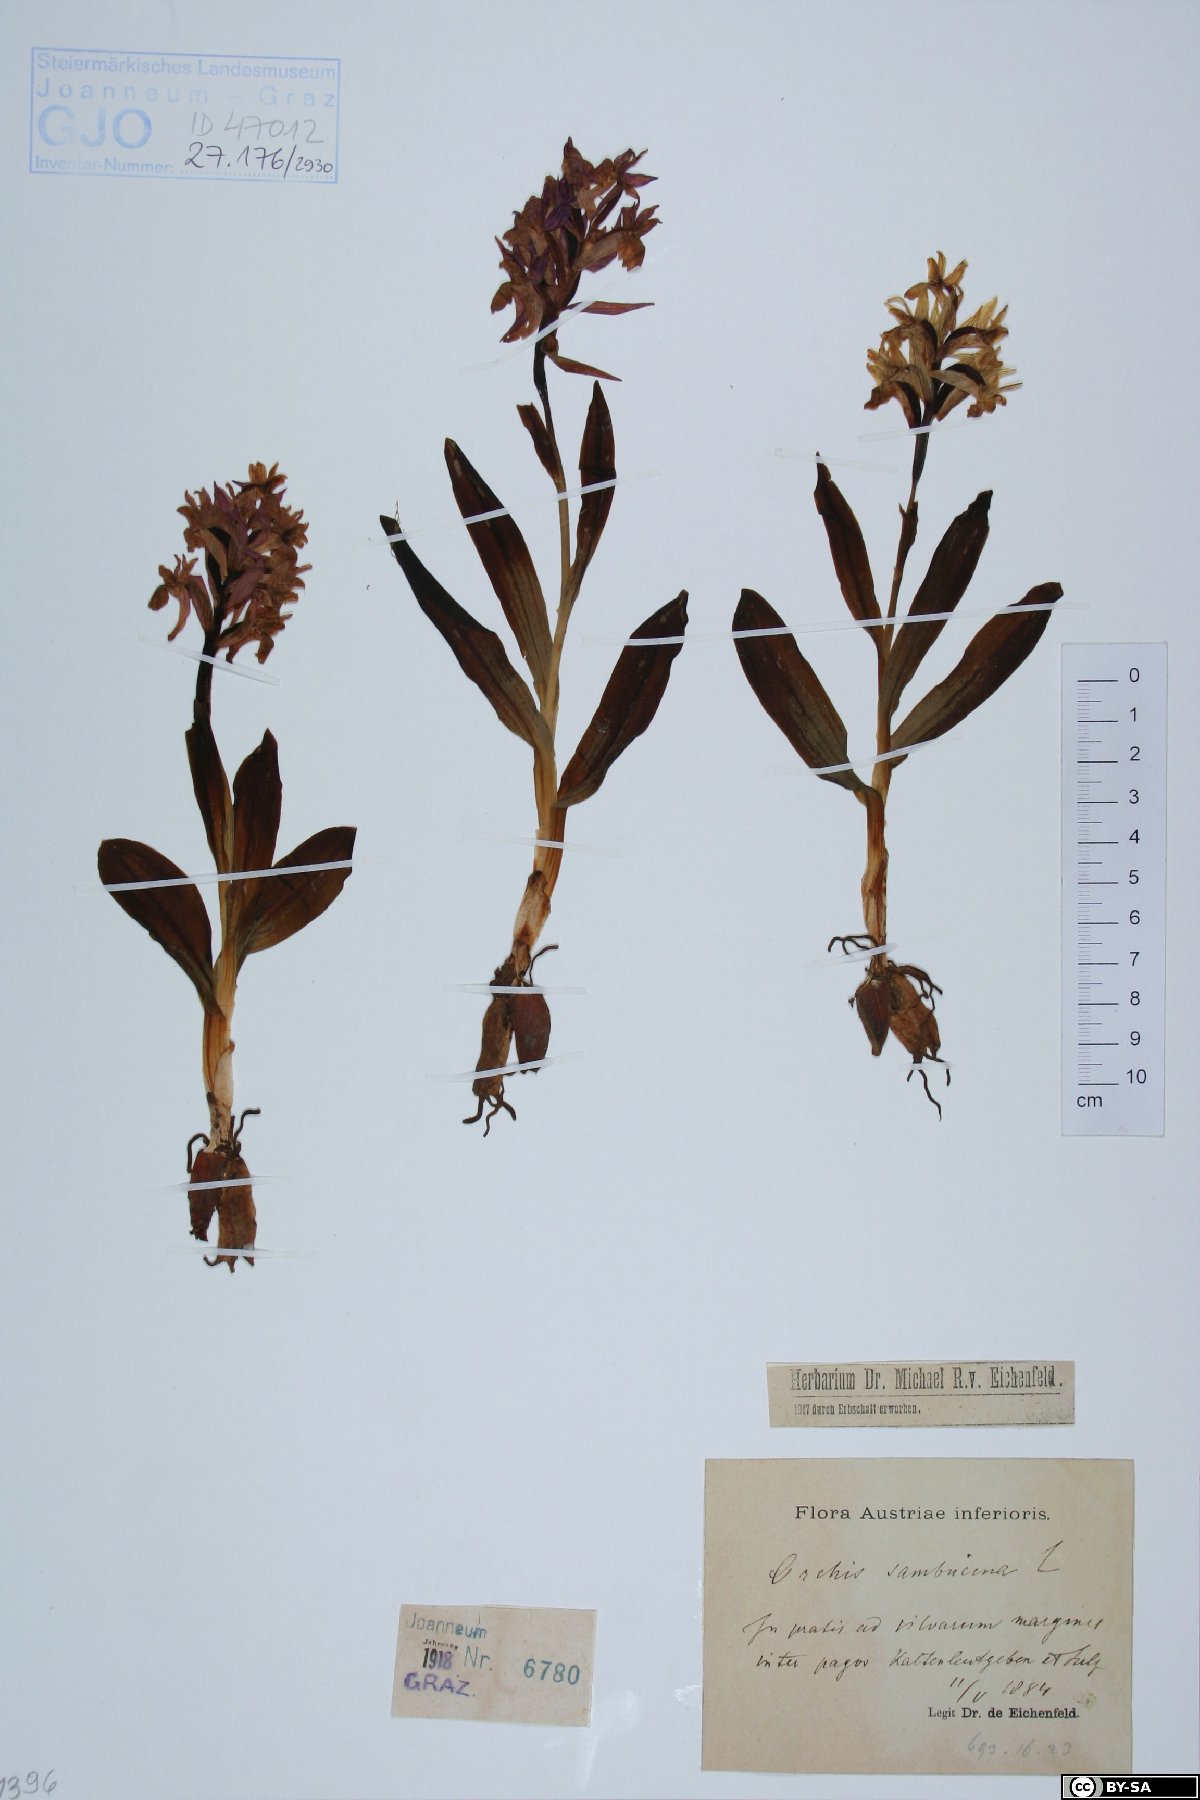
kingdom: Plantae
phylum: Tracheophyta
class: Liliopsida
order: Asparagales
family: Orchidaceae
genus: Dactylorhiza
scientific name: Dactylorhiza sambucina
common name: Elder-flowered orchid
